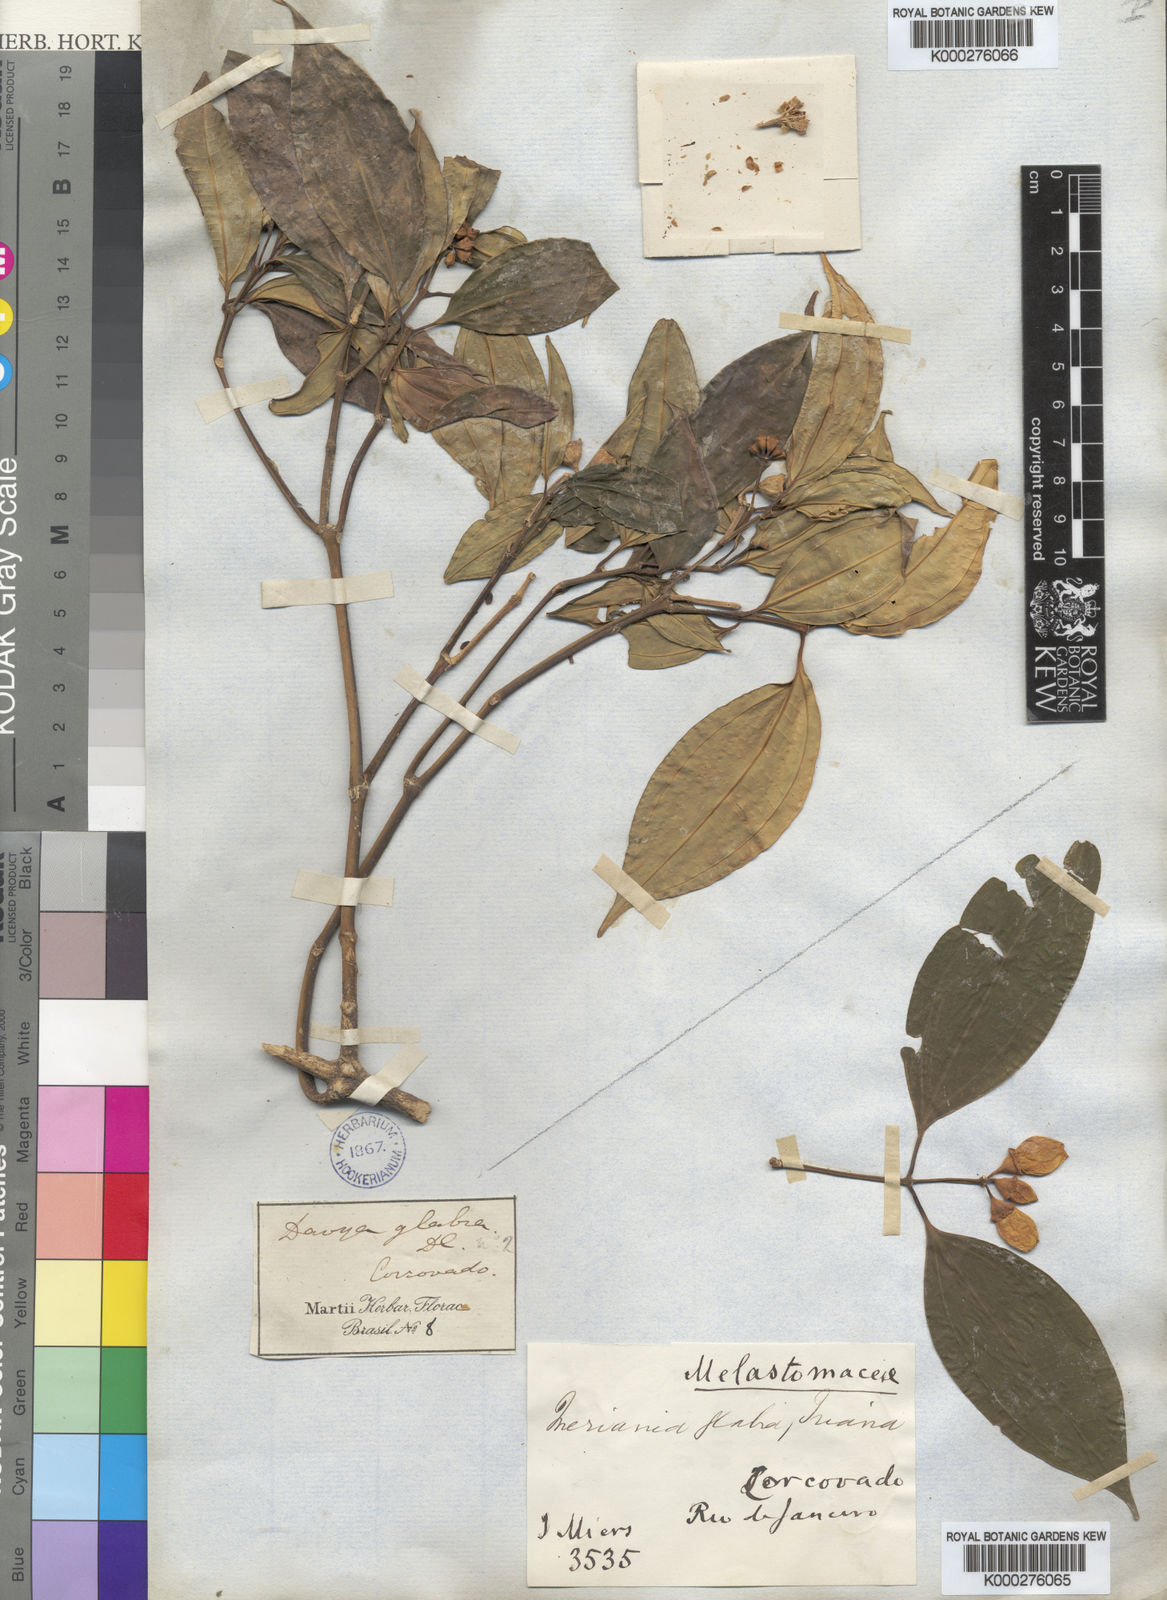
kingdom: Plantae
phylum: Tracheophyta
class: Magnoliopsida
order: Myrtales
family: Melastomataceae
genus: Meriania
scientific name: Meriania glabra
